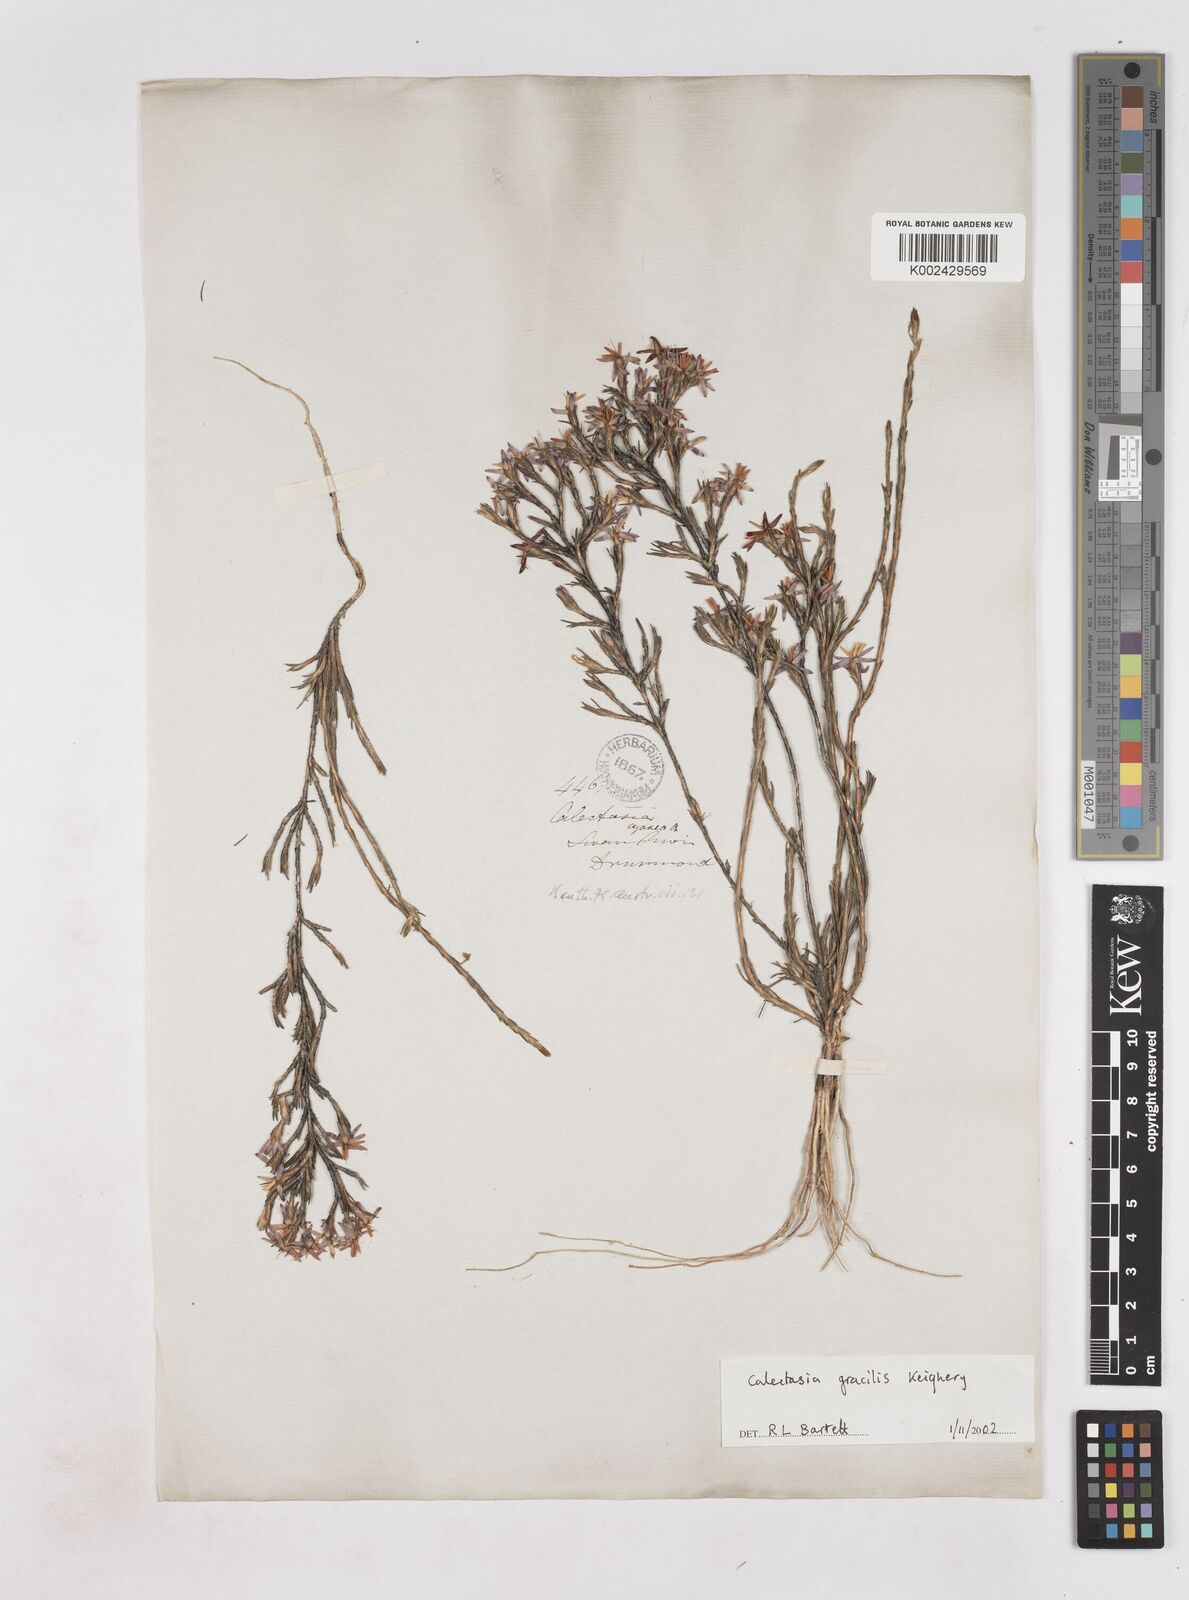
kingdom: Plantae
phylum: Tracheophyta
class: Liliopsida
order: Arecales
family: Dasypogonaceae
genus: Calectasia
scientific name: Calectasia gracilis
